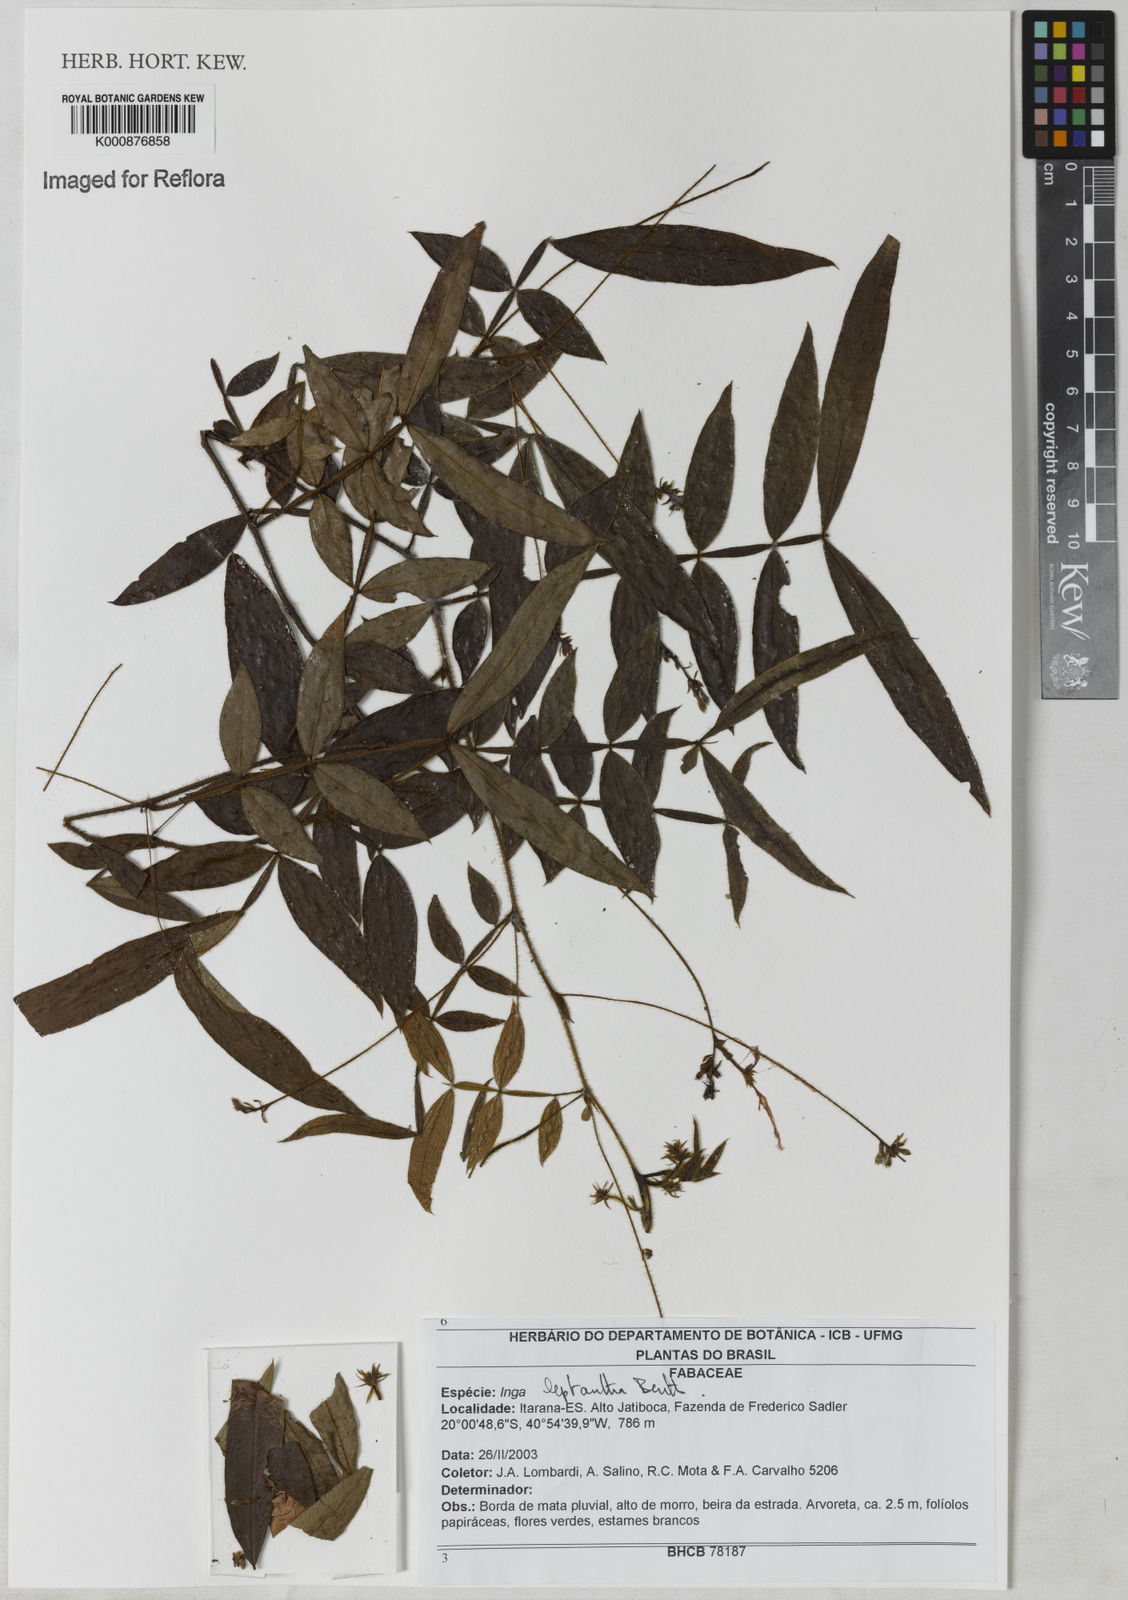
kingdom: Plantae
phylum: Tracheophyta
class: Magnoliopsida
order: Fabales
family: Fabaceae
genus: Inga
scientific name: Inga leptantha
